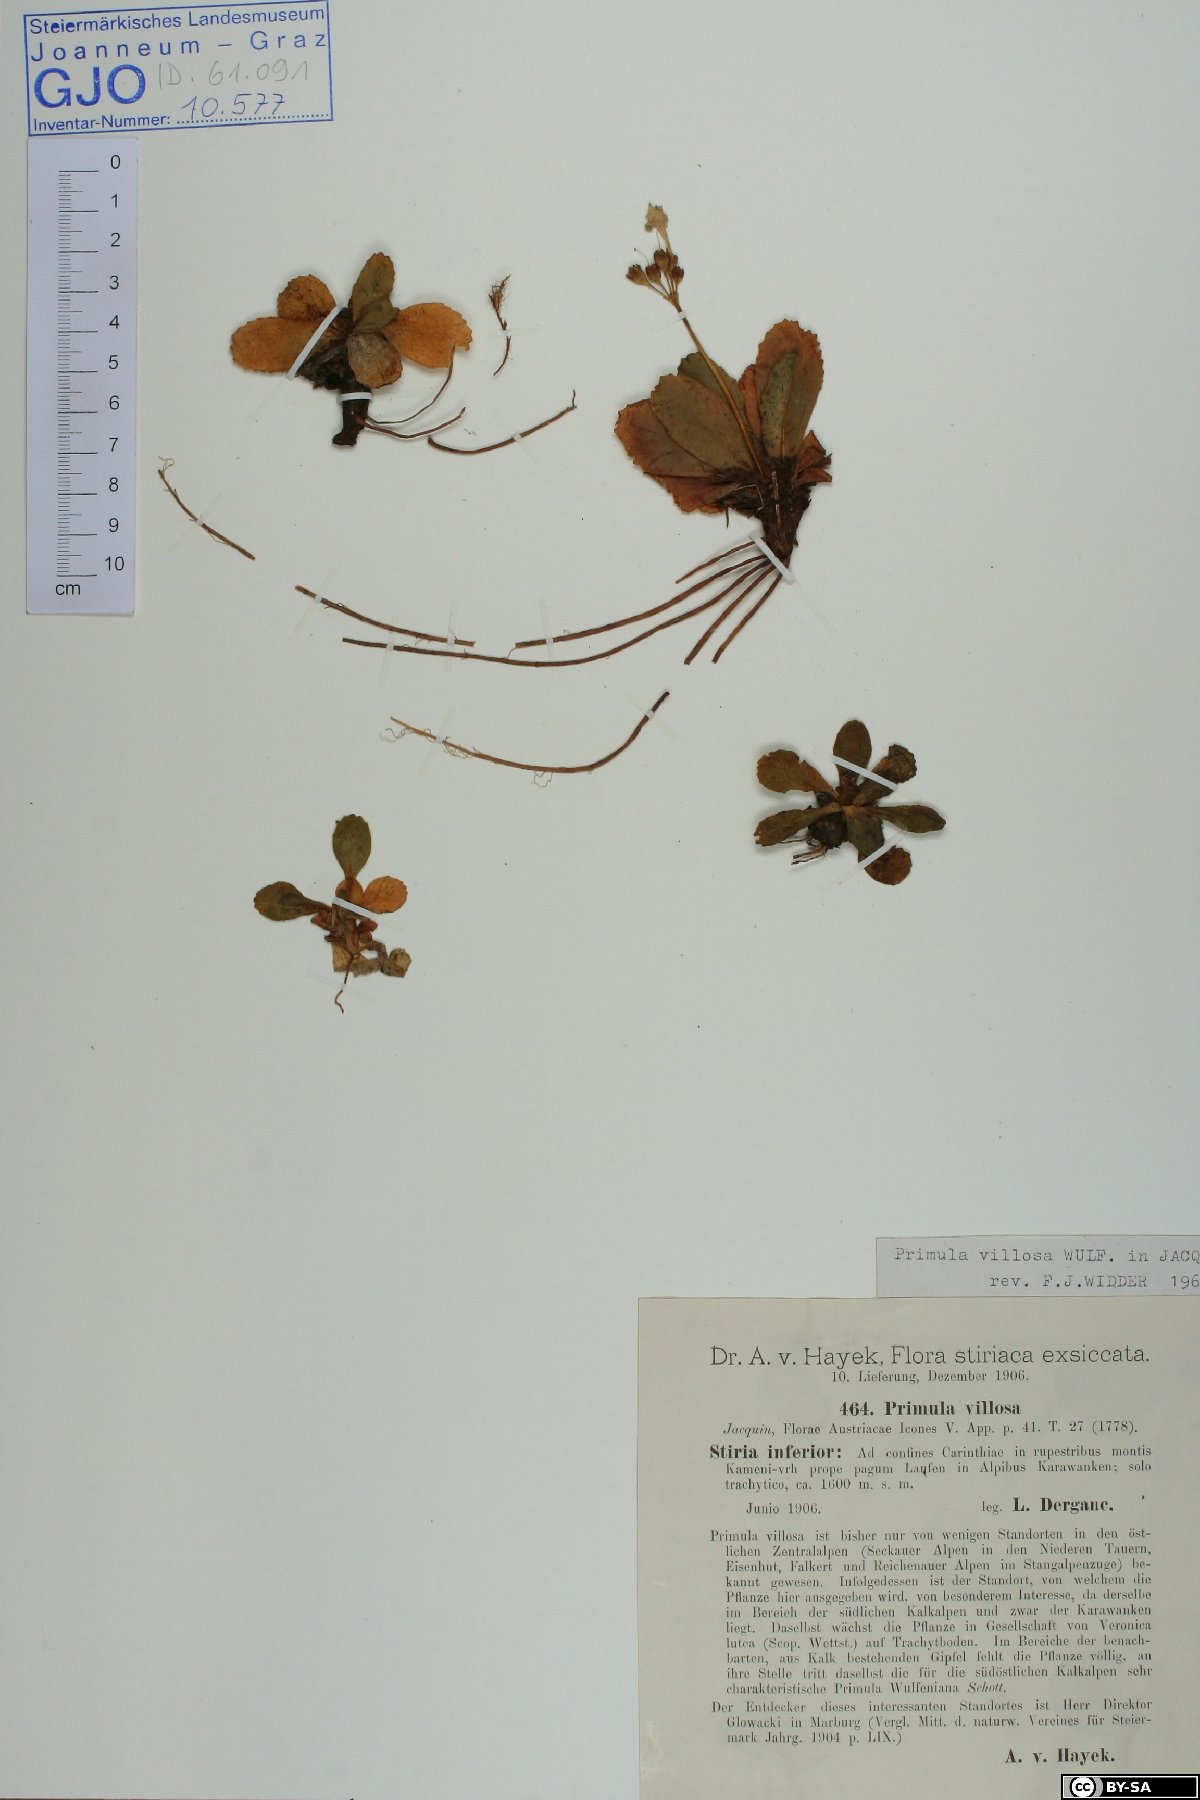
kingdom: Plantae
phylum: Tracheophyta
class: Magnoliopsida
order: Ericales
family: Primulaceae
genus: Primula
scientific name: Primula villosa
